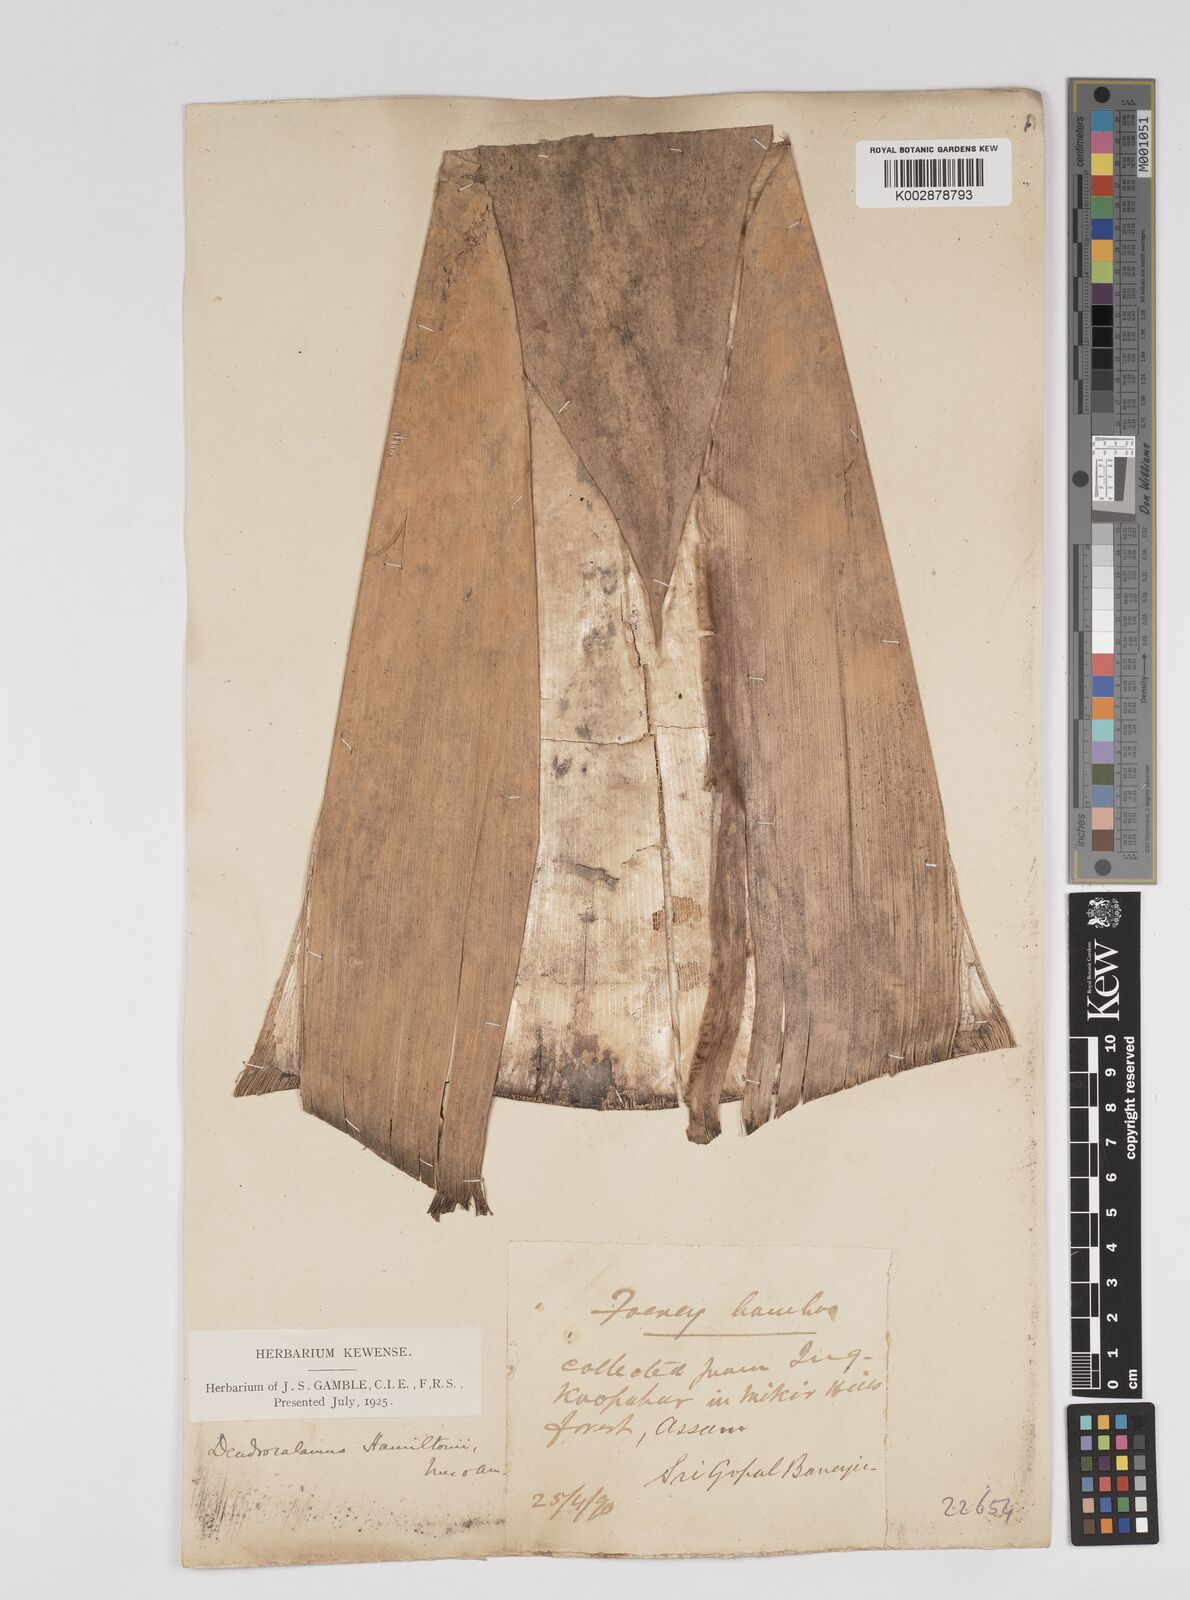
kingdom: Plantae
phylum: Tracheophyta
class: Liliopsida
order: Poales
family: Poaceae
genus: Dendrocalamus
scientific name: Dendrocalamus hamiltonii
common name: Tama bamboo
